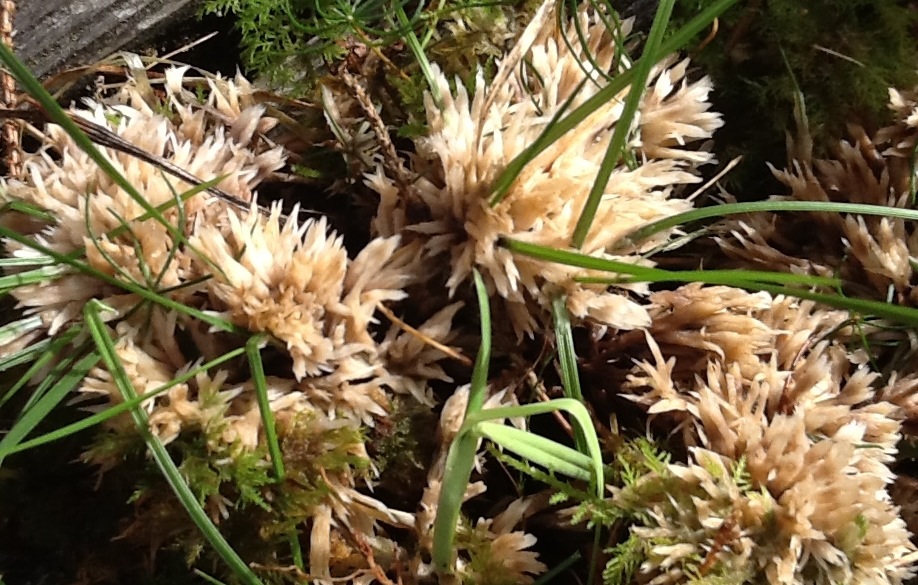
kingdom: Fungi
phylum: Basidiomycota
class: Agaricomycetes
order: Thelephorales
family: Thelephoraceae
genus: Thelephora
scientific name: Thelephora penicillata
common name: fladtrådt frynsesvamp
